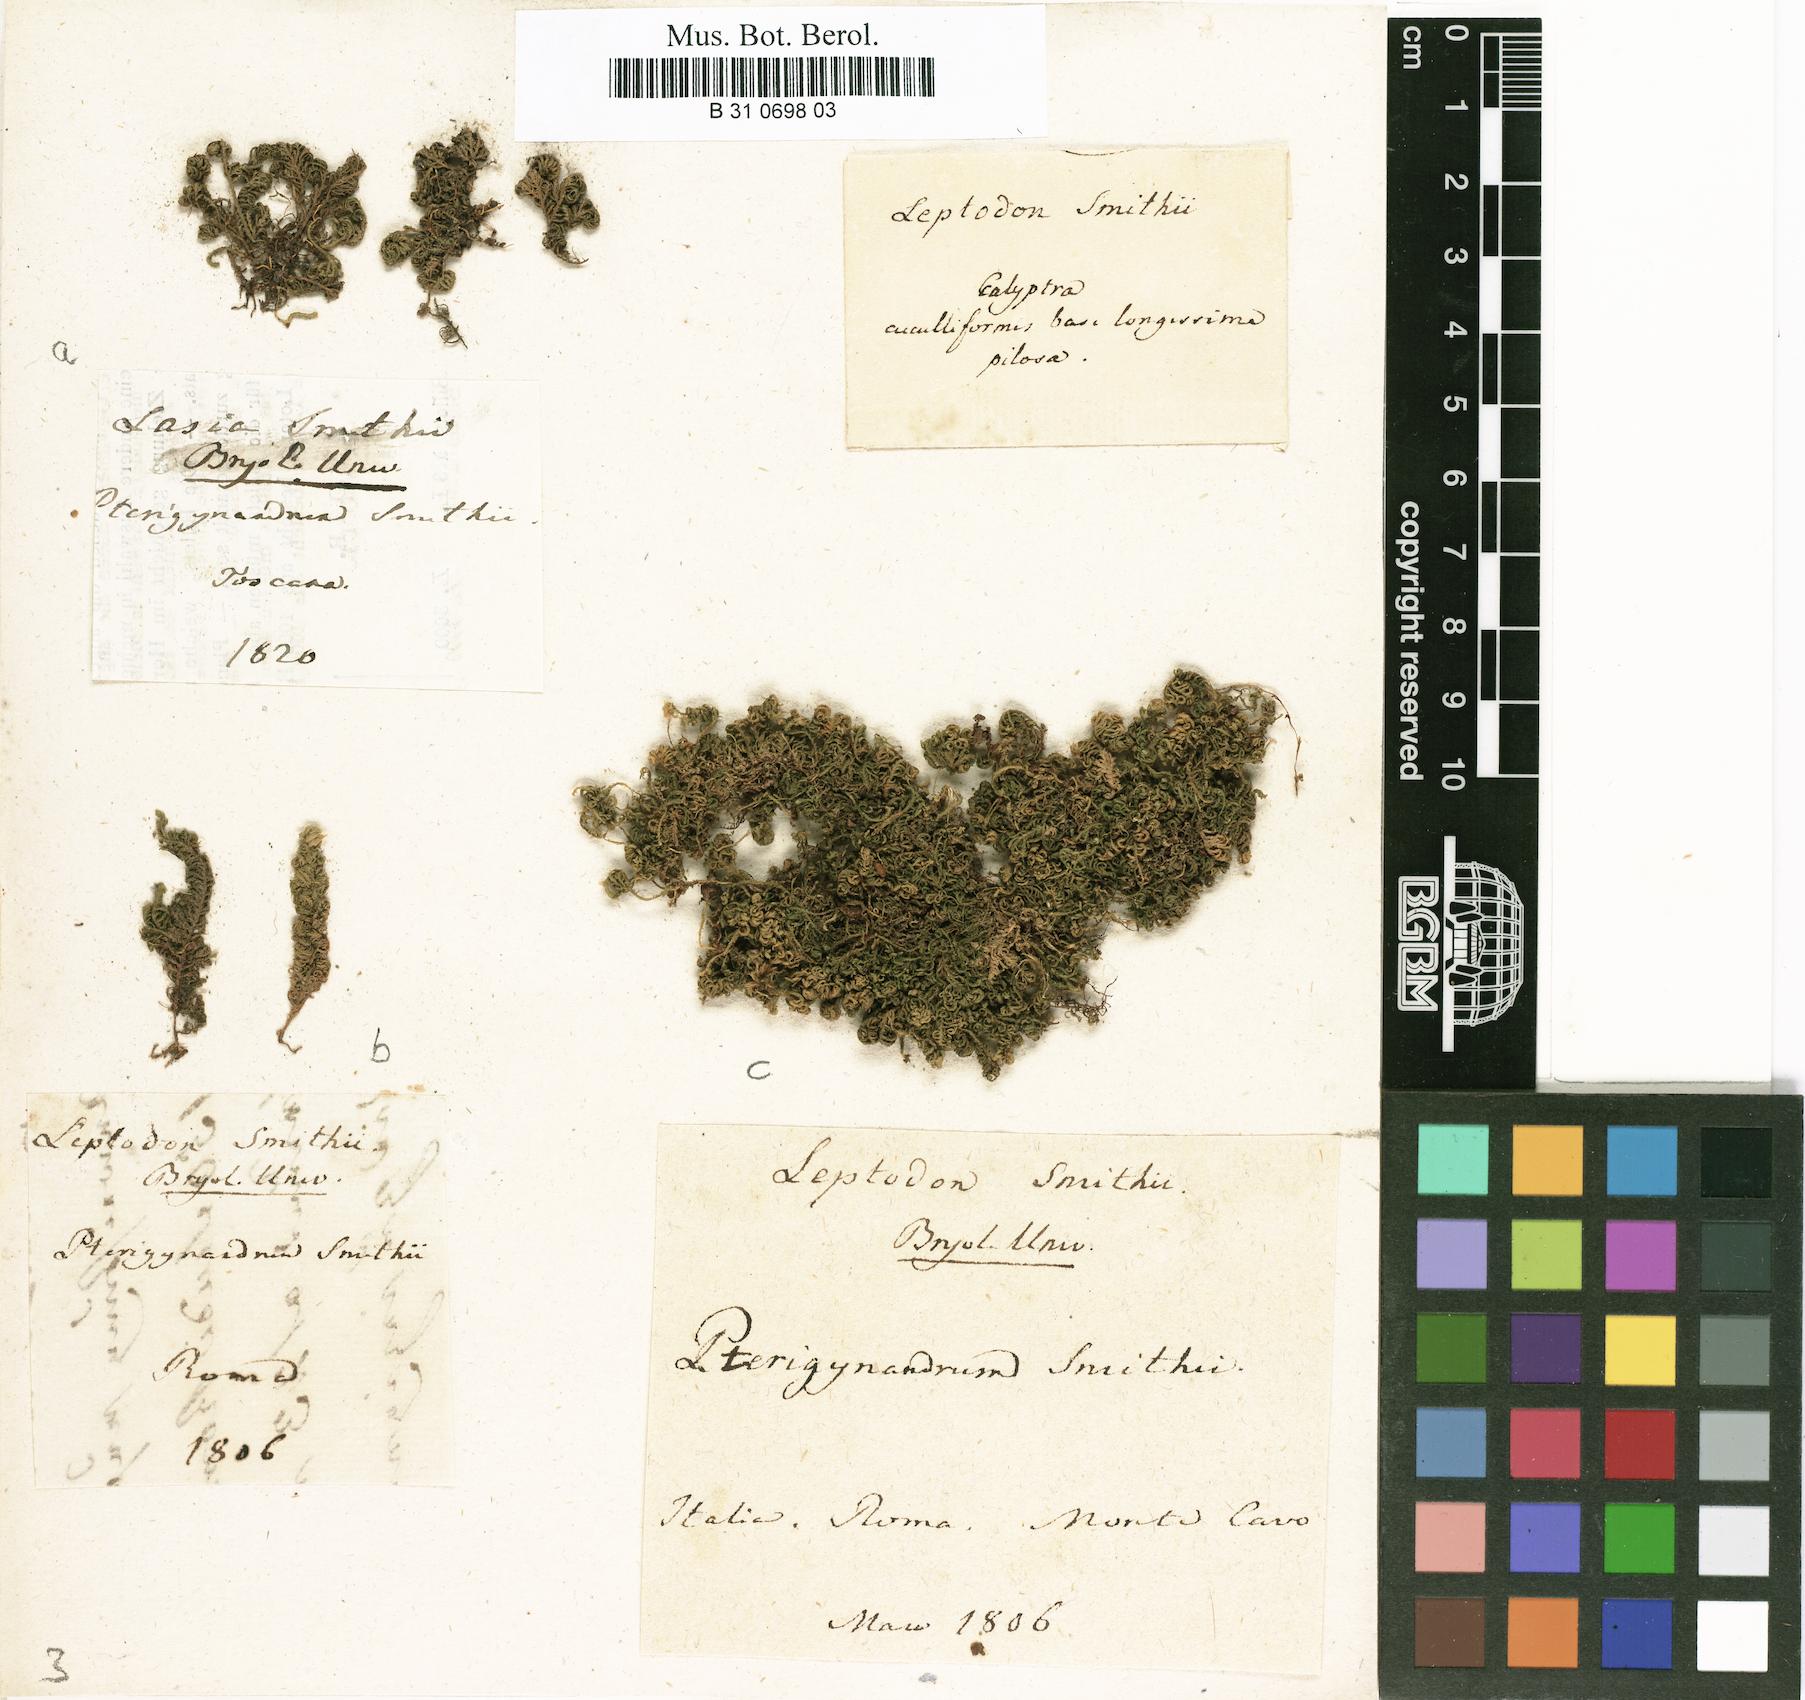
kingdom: Plantae
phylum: Bryophyta
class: Bryopsida
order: Hypnales
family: Neckeraceae
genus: Leptodon
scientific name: Leptodon smithii
